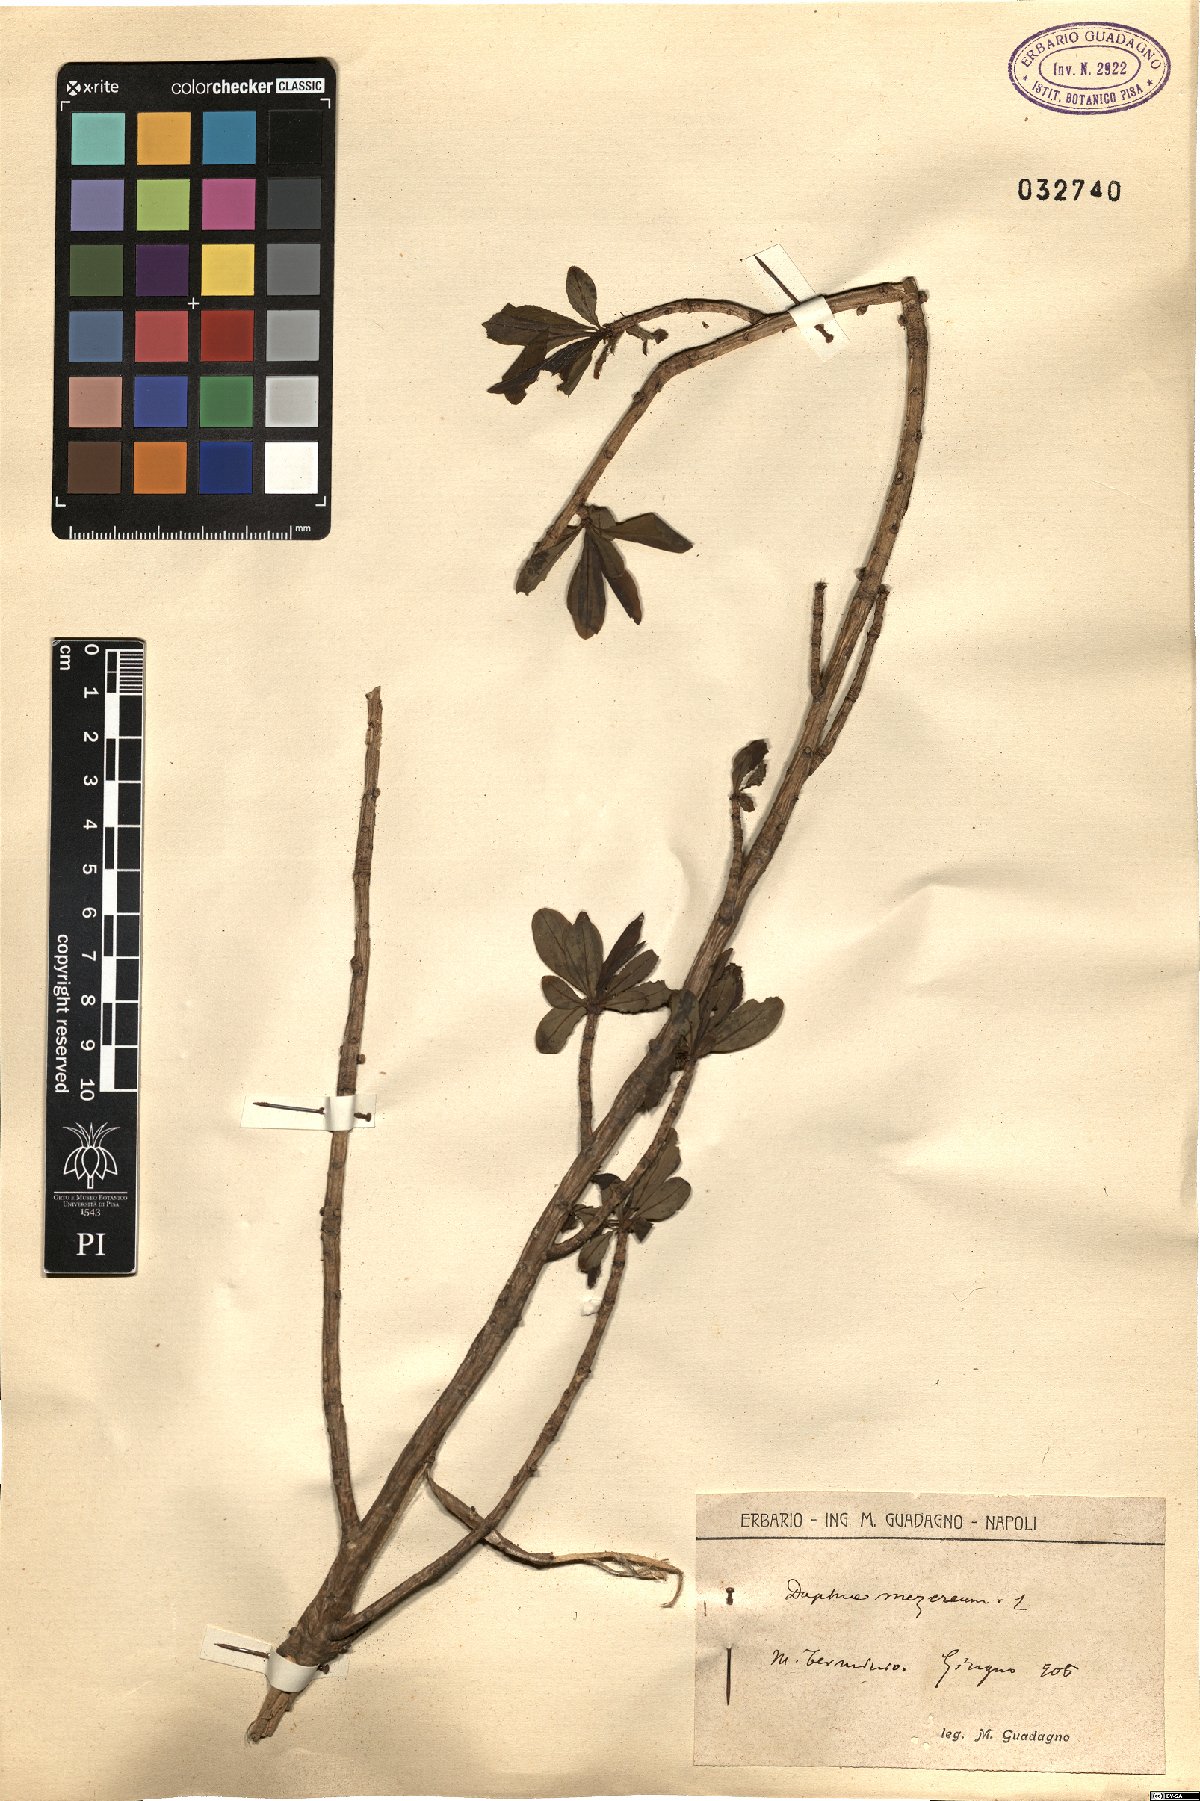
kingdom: Plantae
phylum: Tracheophyta
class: Magnoliopsida
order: Malvales
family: Thymelaeaceae
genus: Daphne
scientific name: Daphne mezereum
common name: Mezereon
